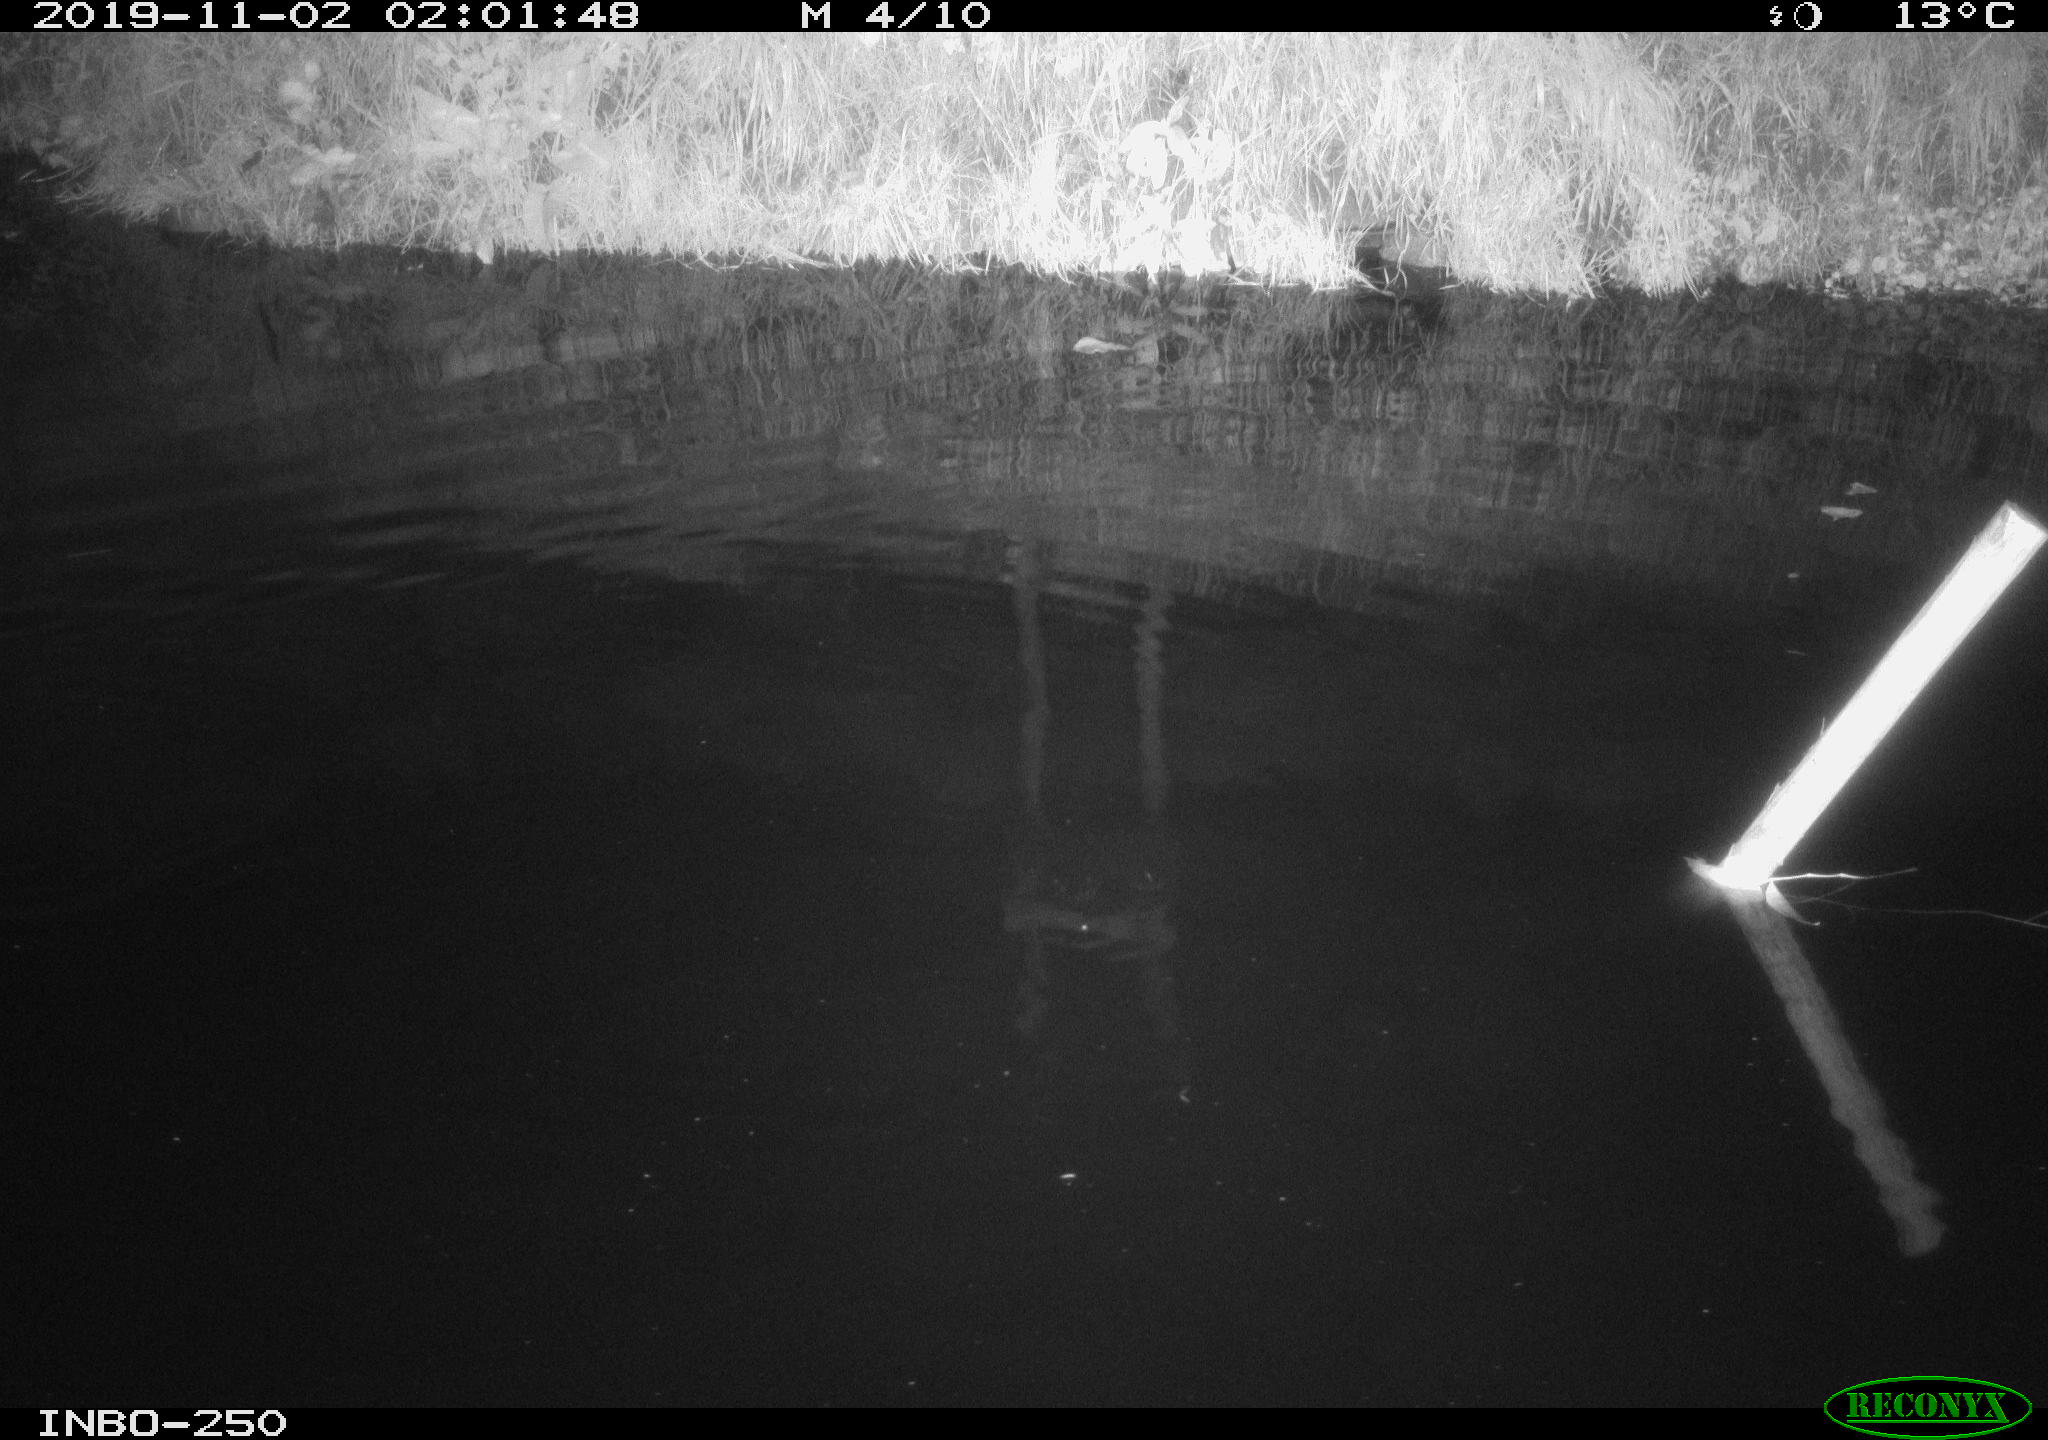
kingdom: Animalia
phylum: Chordata
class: Aves
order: Anseriformes
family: Anatidae
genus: Anas
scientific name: Anas platyrhynchos
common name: Mallard
